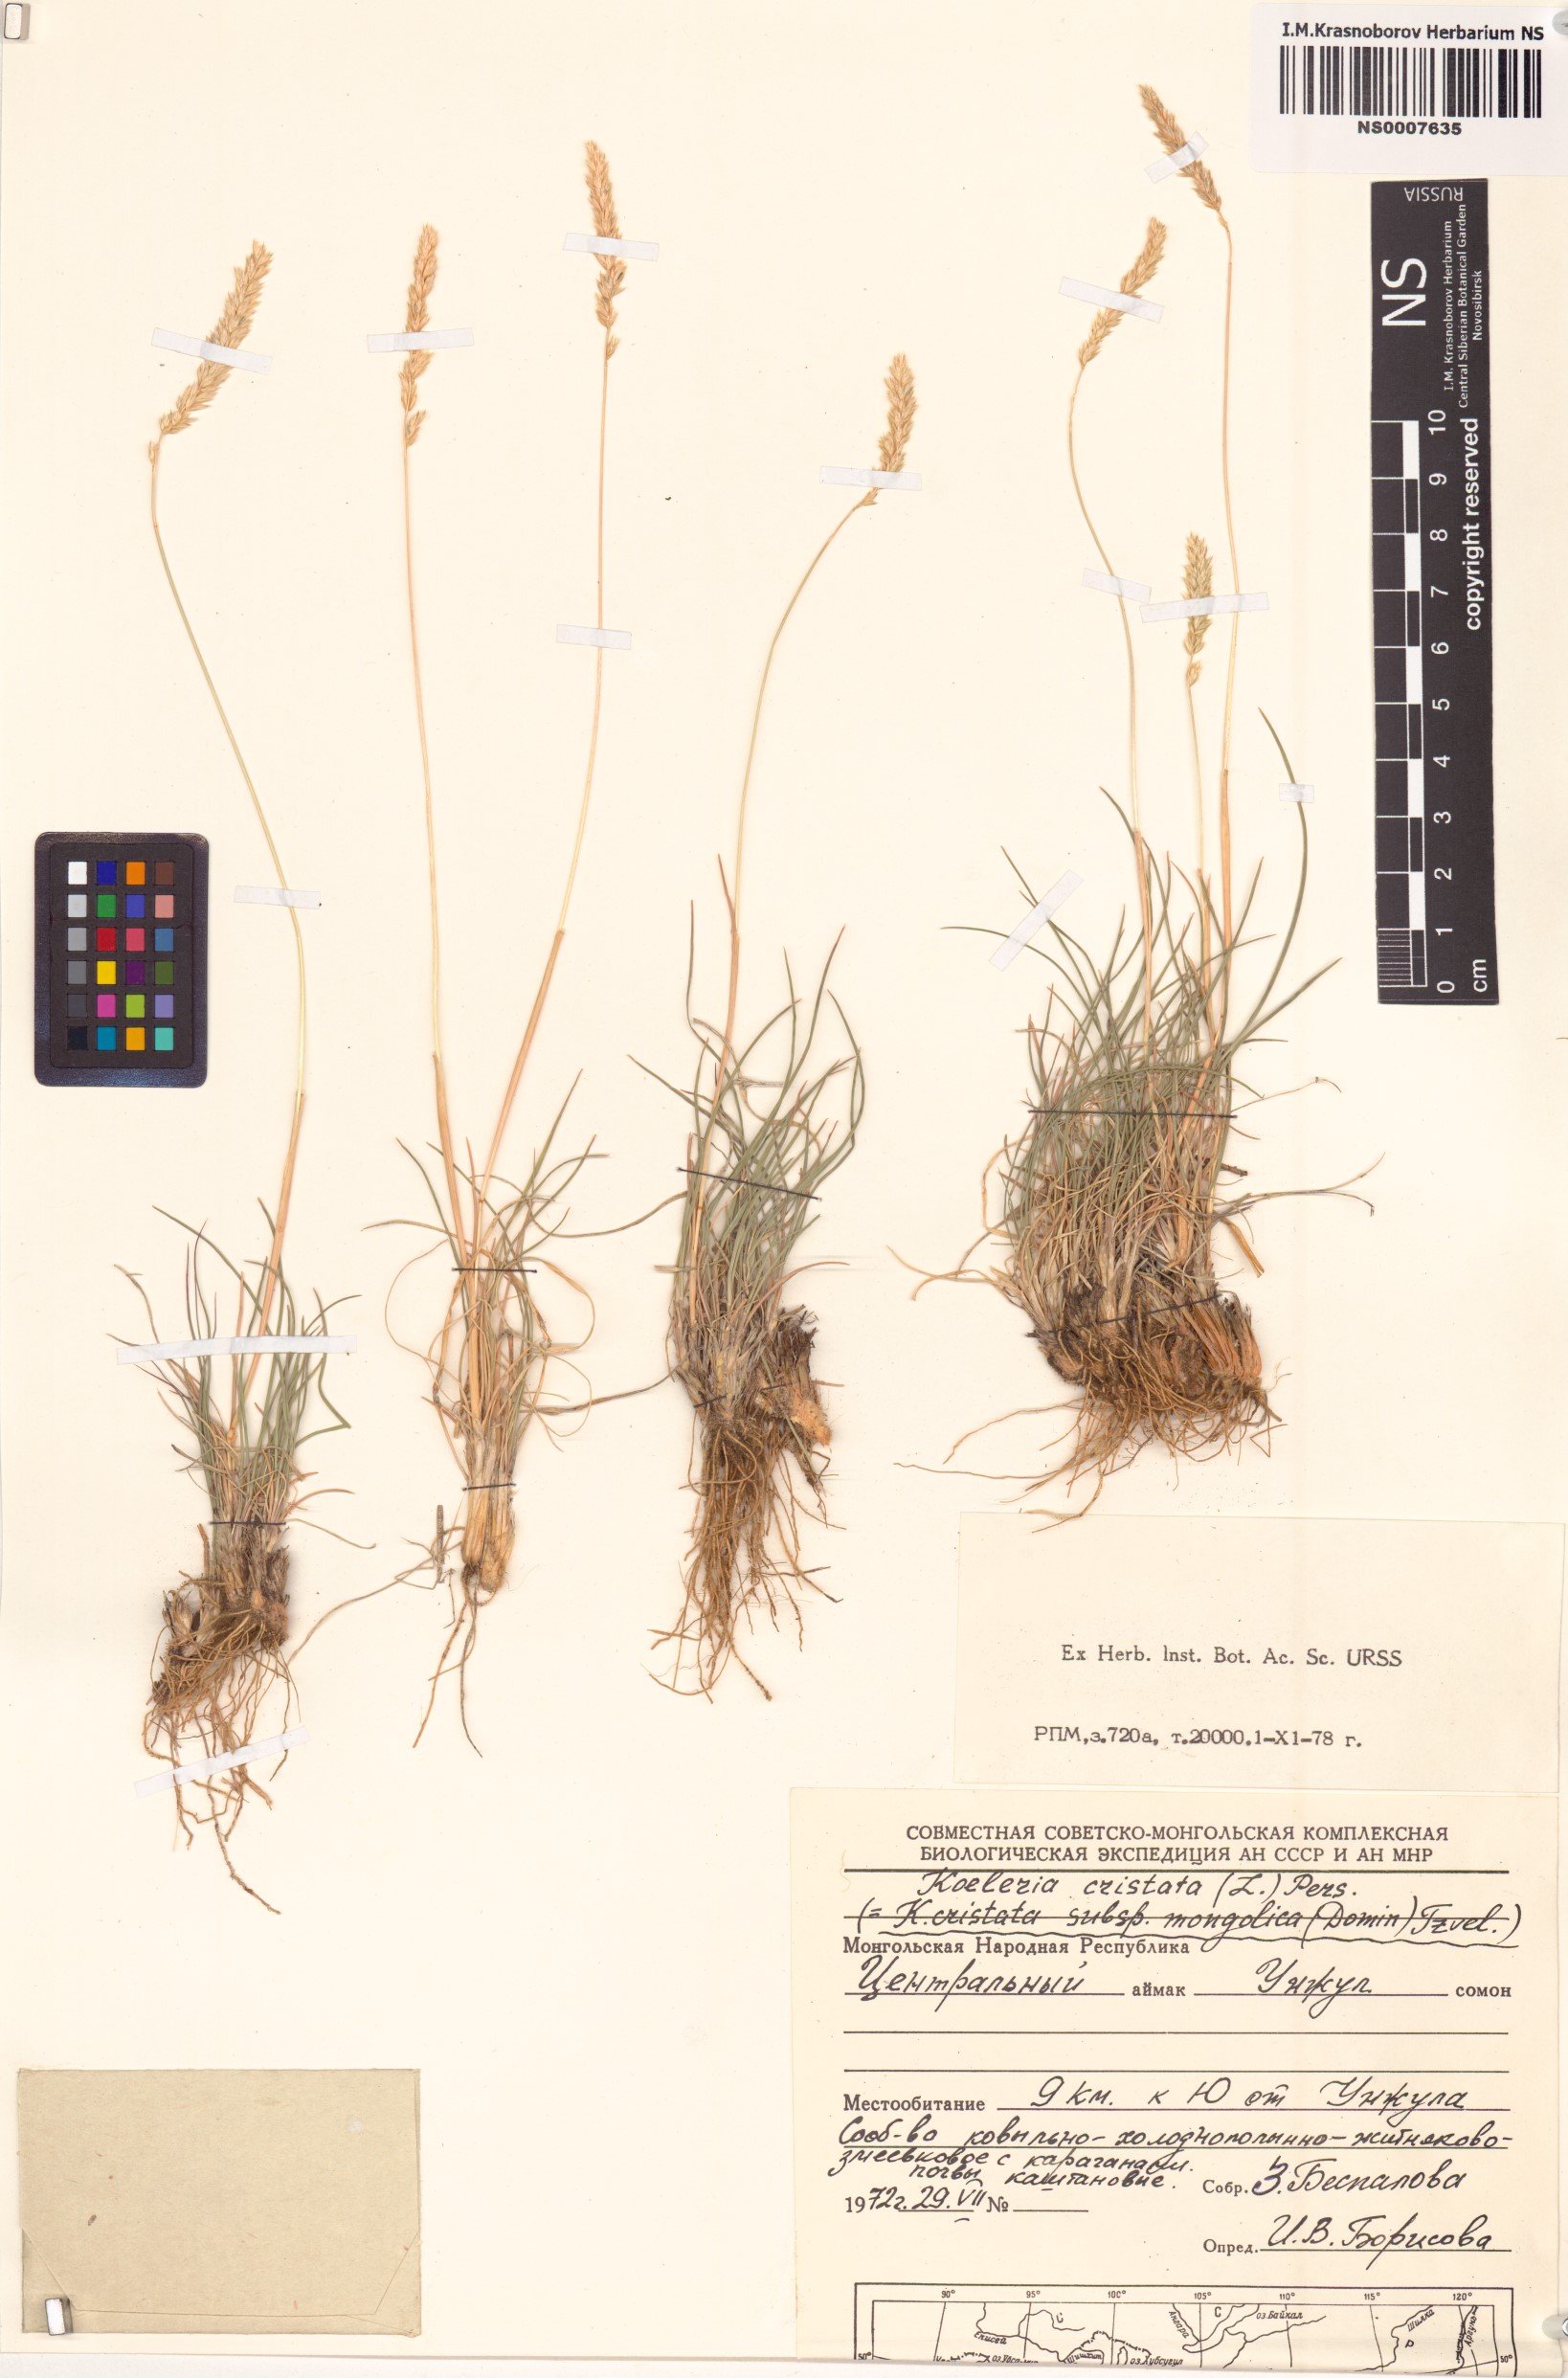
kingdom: Plantae
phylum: Tracheophyta
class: Liliopsida
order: Poales
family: Poaceae
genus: Rostraria
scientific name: Rostraria cristata
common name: Mediterranean hair-grass
